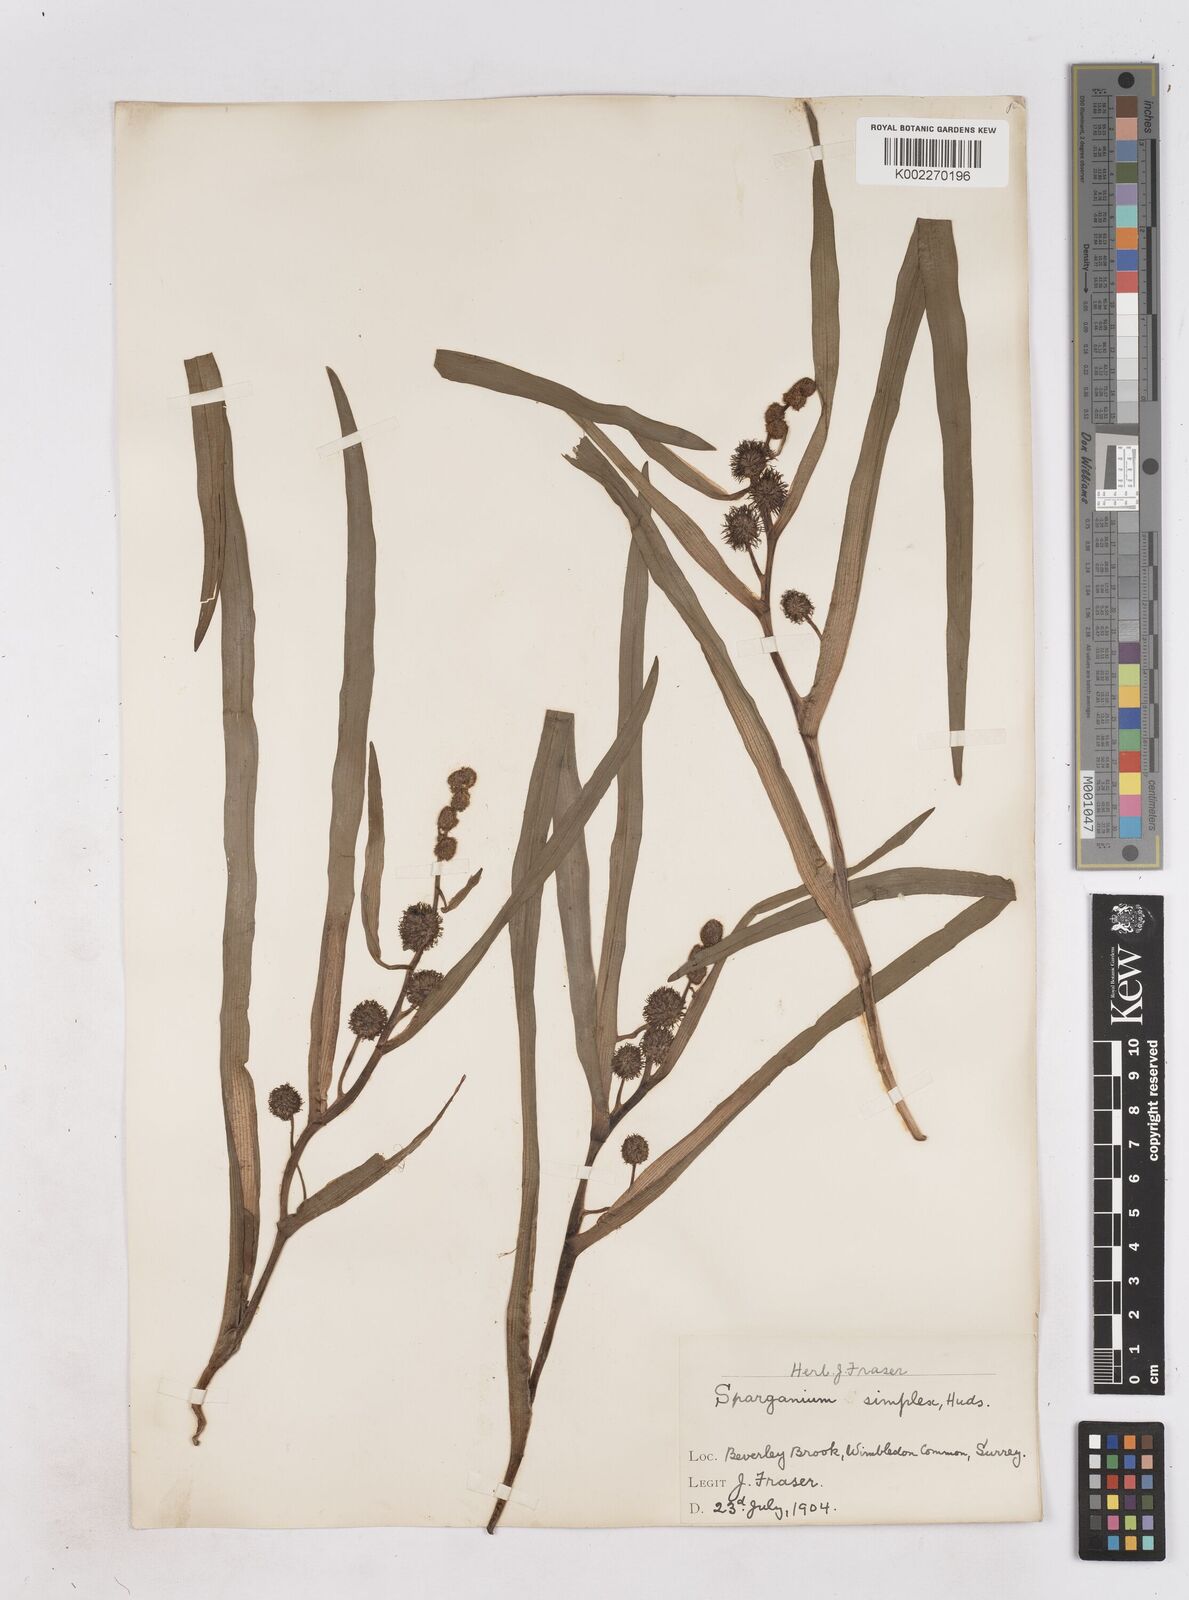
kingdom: Plantae
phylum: Tracheophyta
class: Liliopsida
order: Poales
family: Typhaceae
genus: Sparganium
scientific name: Sparganium emersum
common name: Unbranched bur-reed
